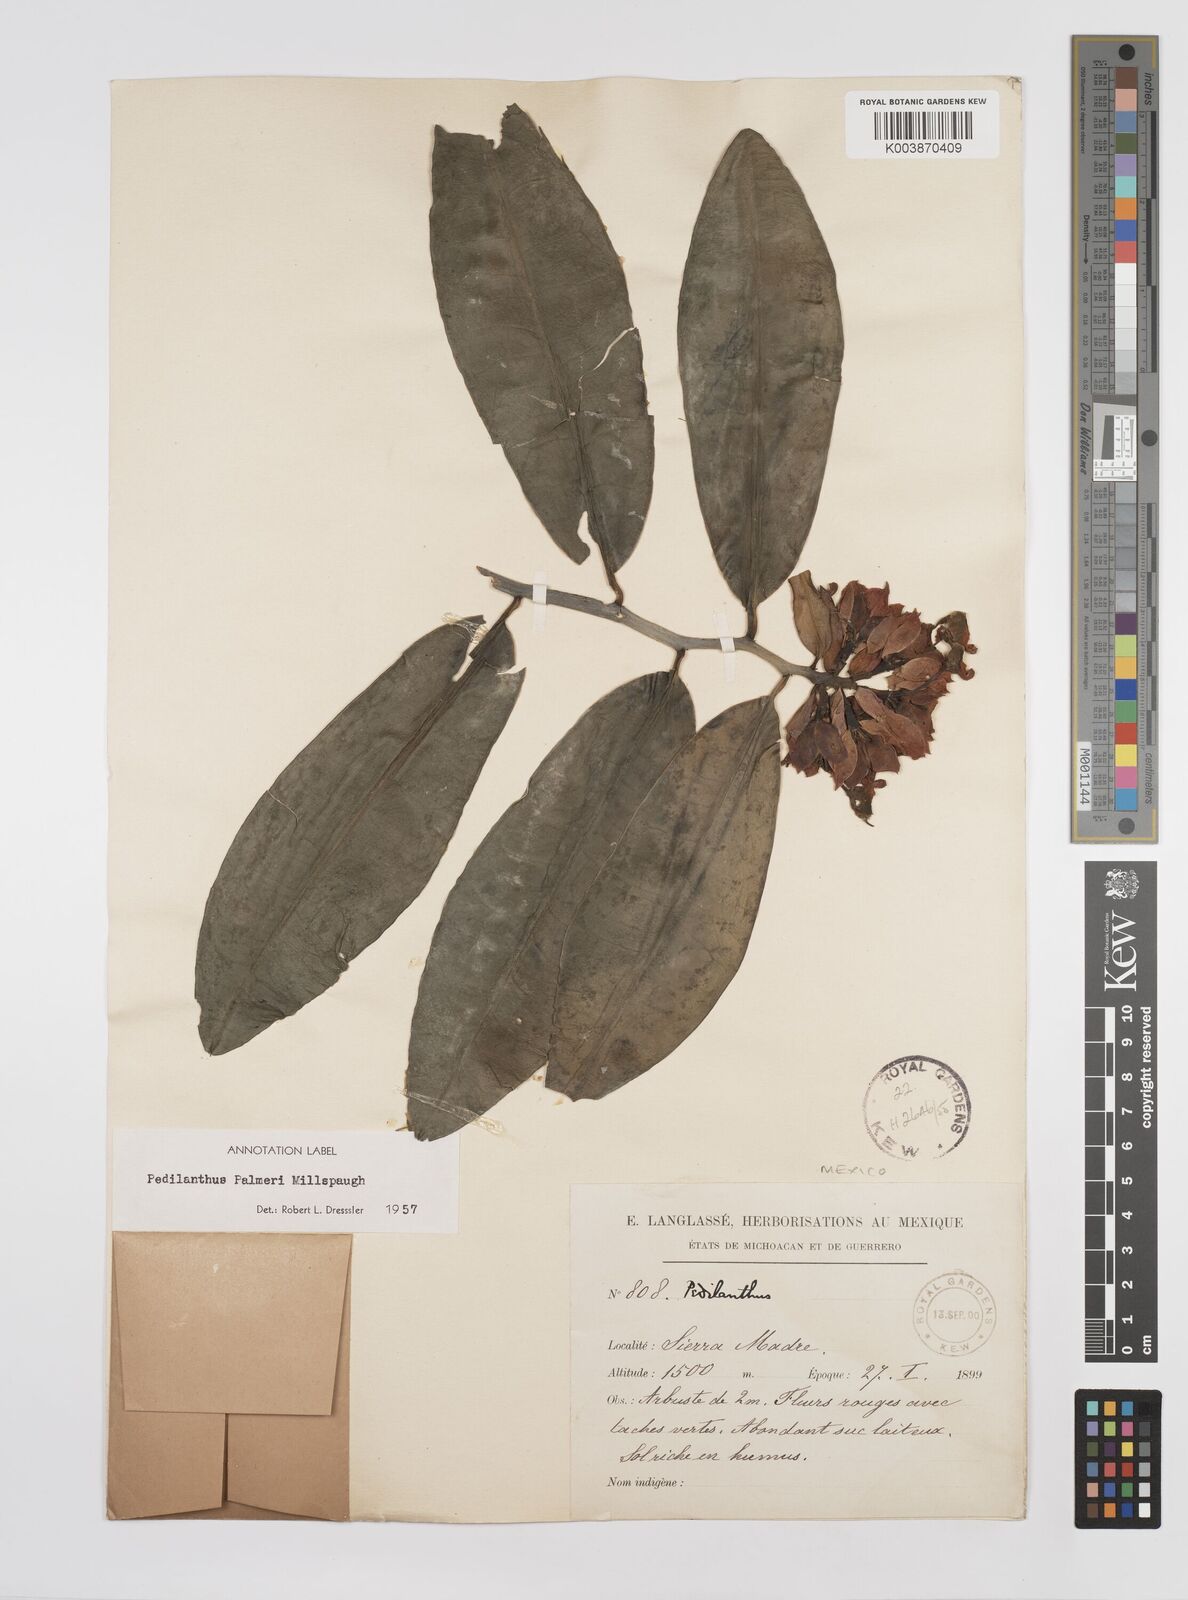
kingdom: Plantae
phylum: Tracheophyta
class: Magnoliopsida
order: Malpighiales
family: Euphorbiaceae
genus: Euphorbia
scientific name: Euphorbia peritropoides
